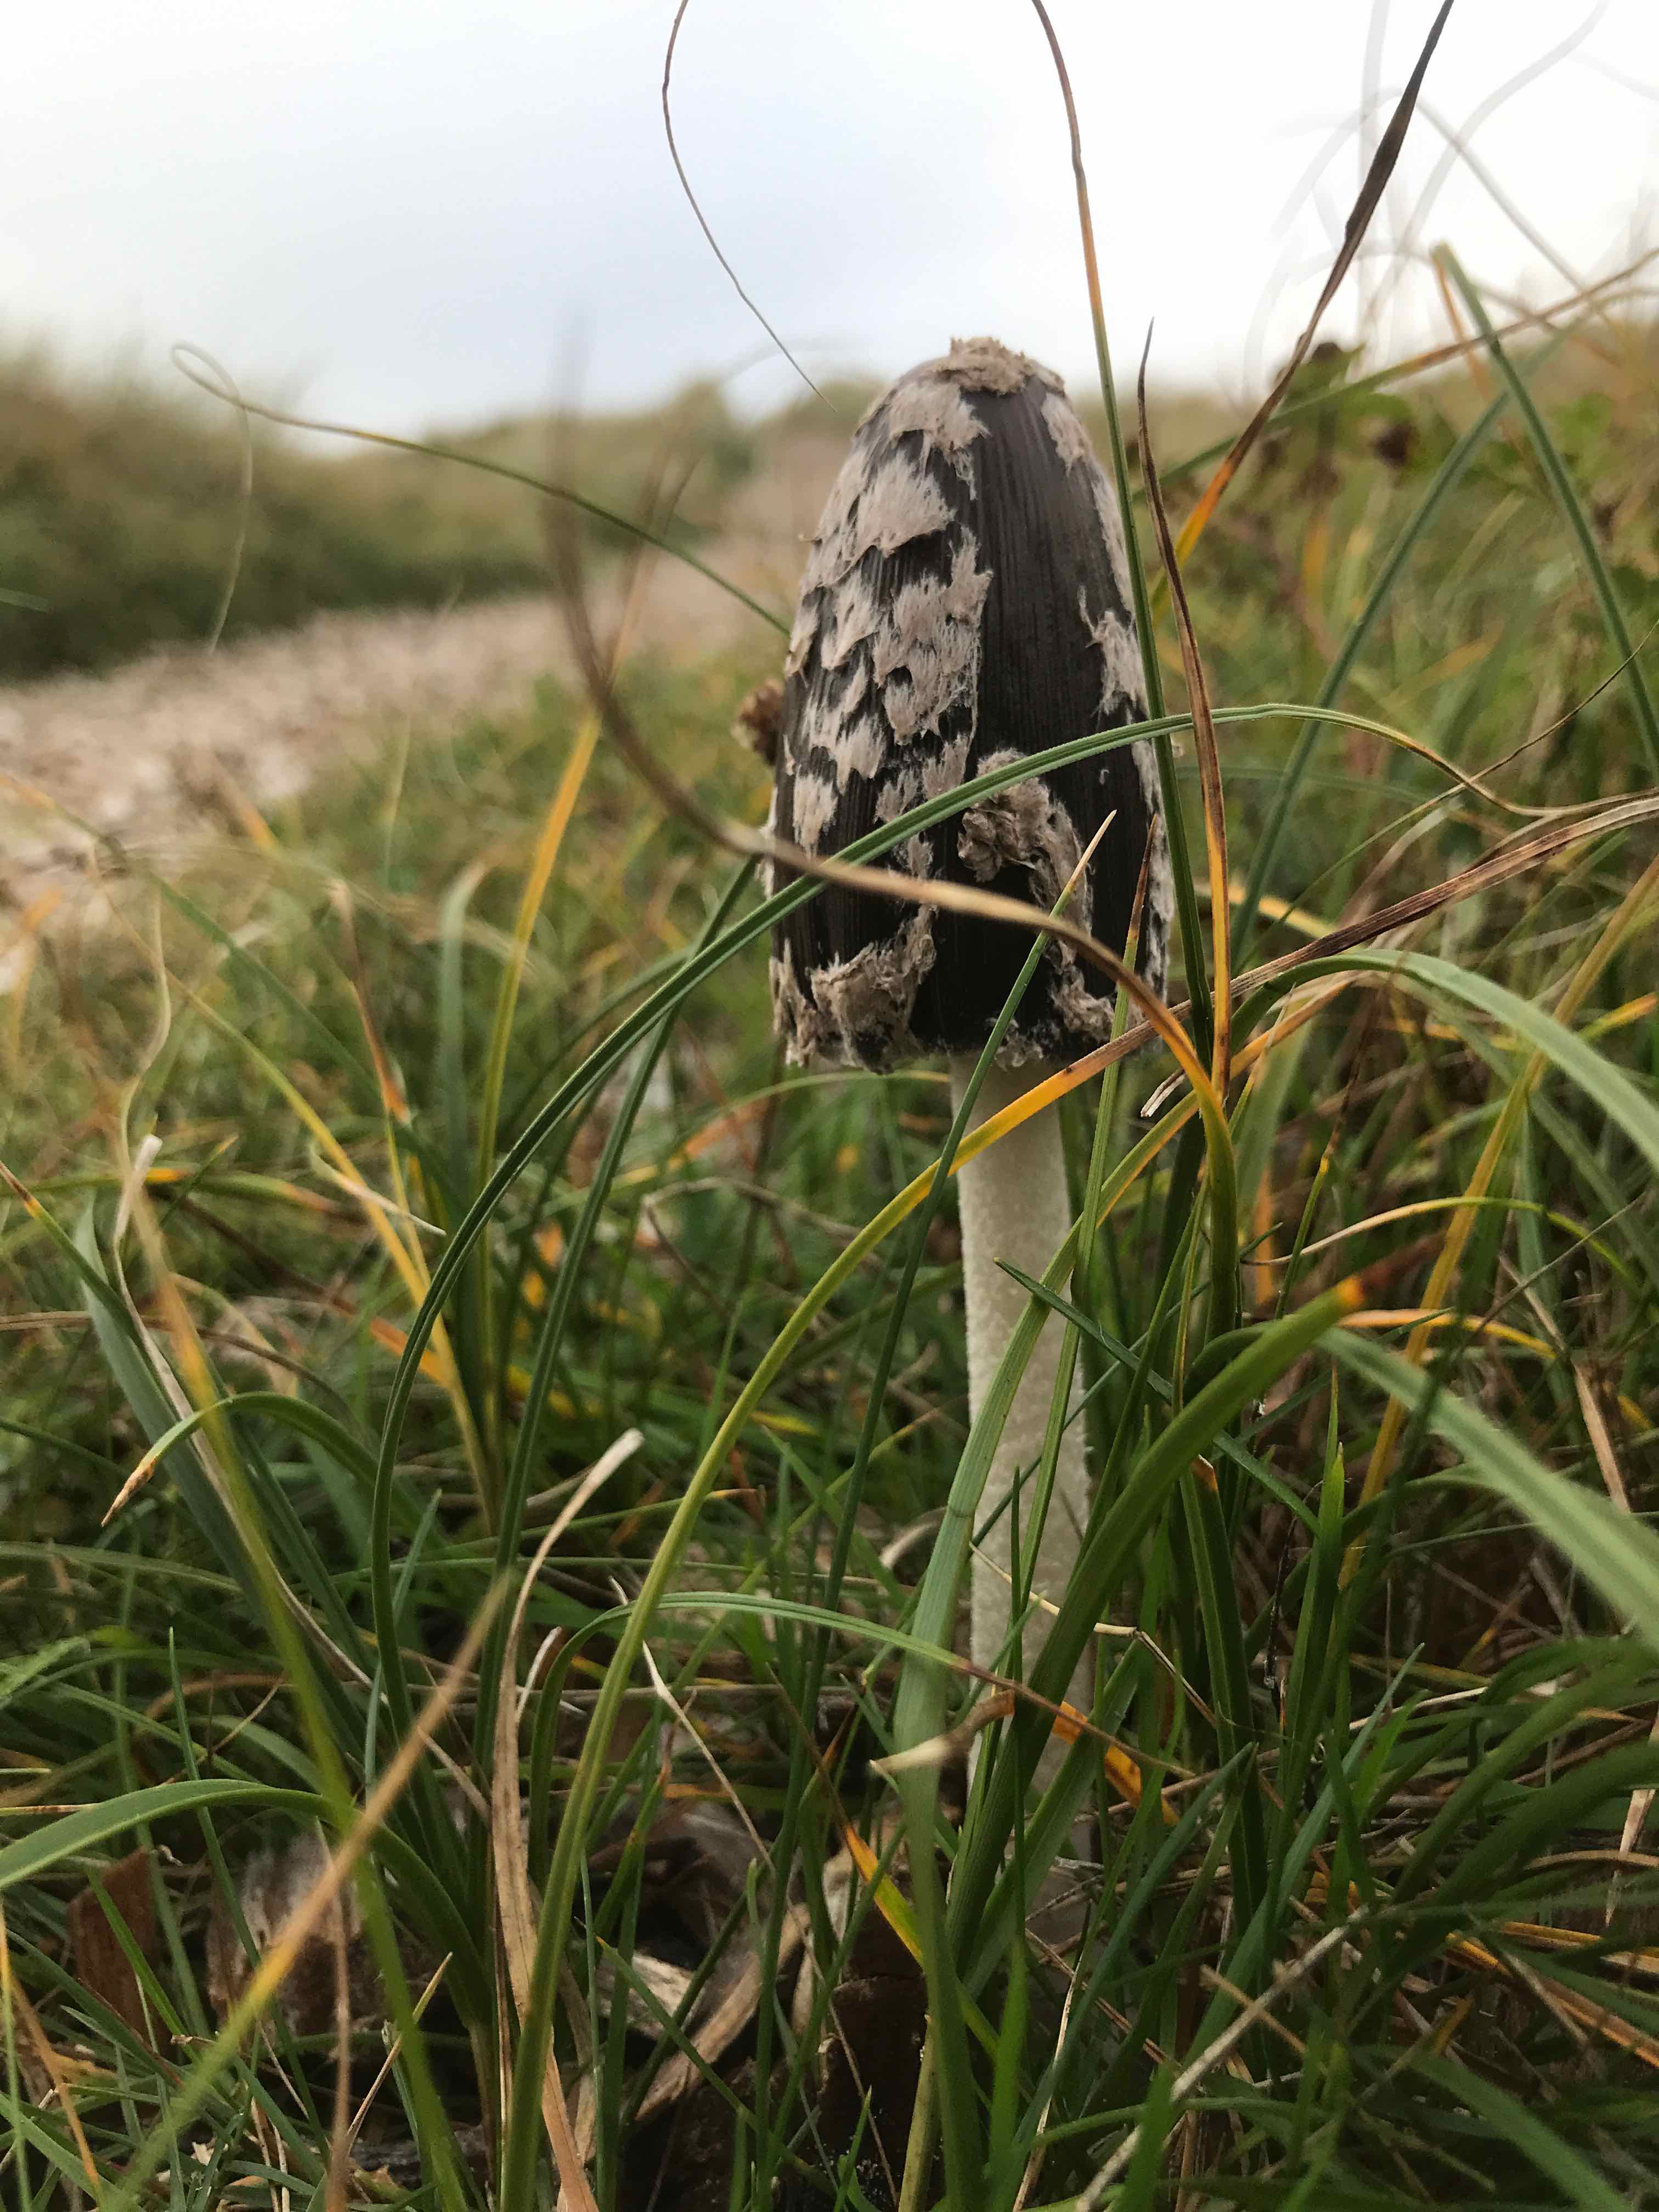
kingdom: Fungi
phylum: Basidiomycota
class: Agaricomycetes
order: Agaricales
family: Psathyrellaceae
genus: Coprinopsis
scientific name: Coprinopsis picacea
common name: skade-blækhat
